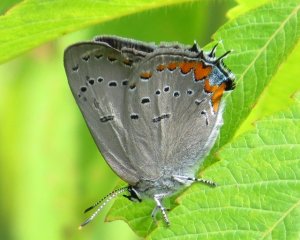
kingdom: Animalia
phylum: Arthropoda
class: Insecta
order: Lepidoptera
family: Lycaenidae
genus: Strymon
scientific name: Strymon acadica
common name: Acadian Hairstreak
